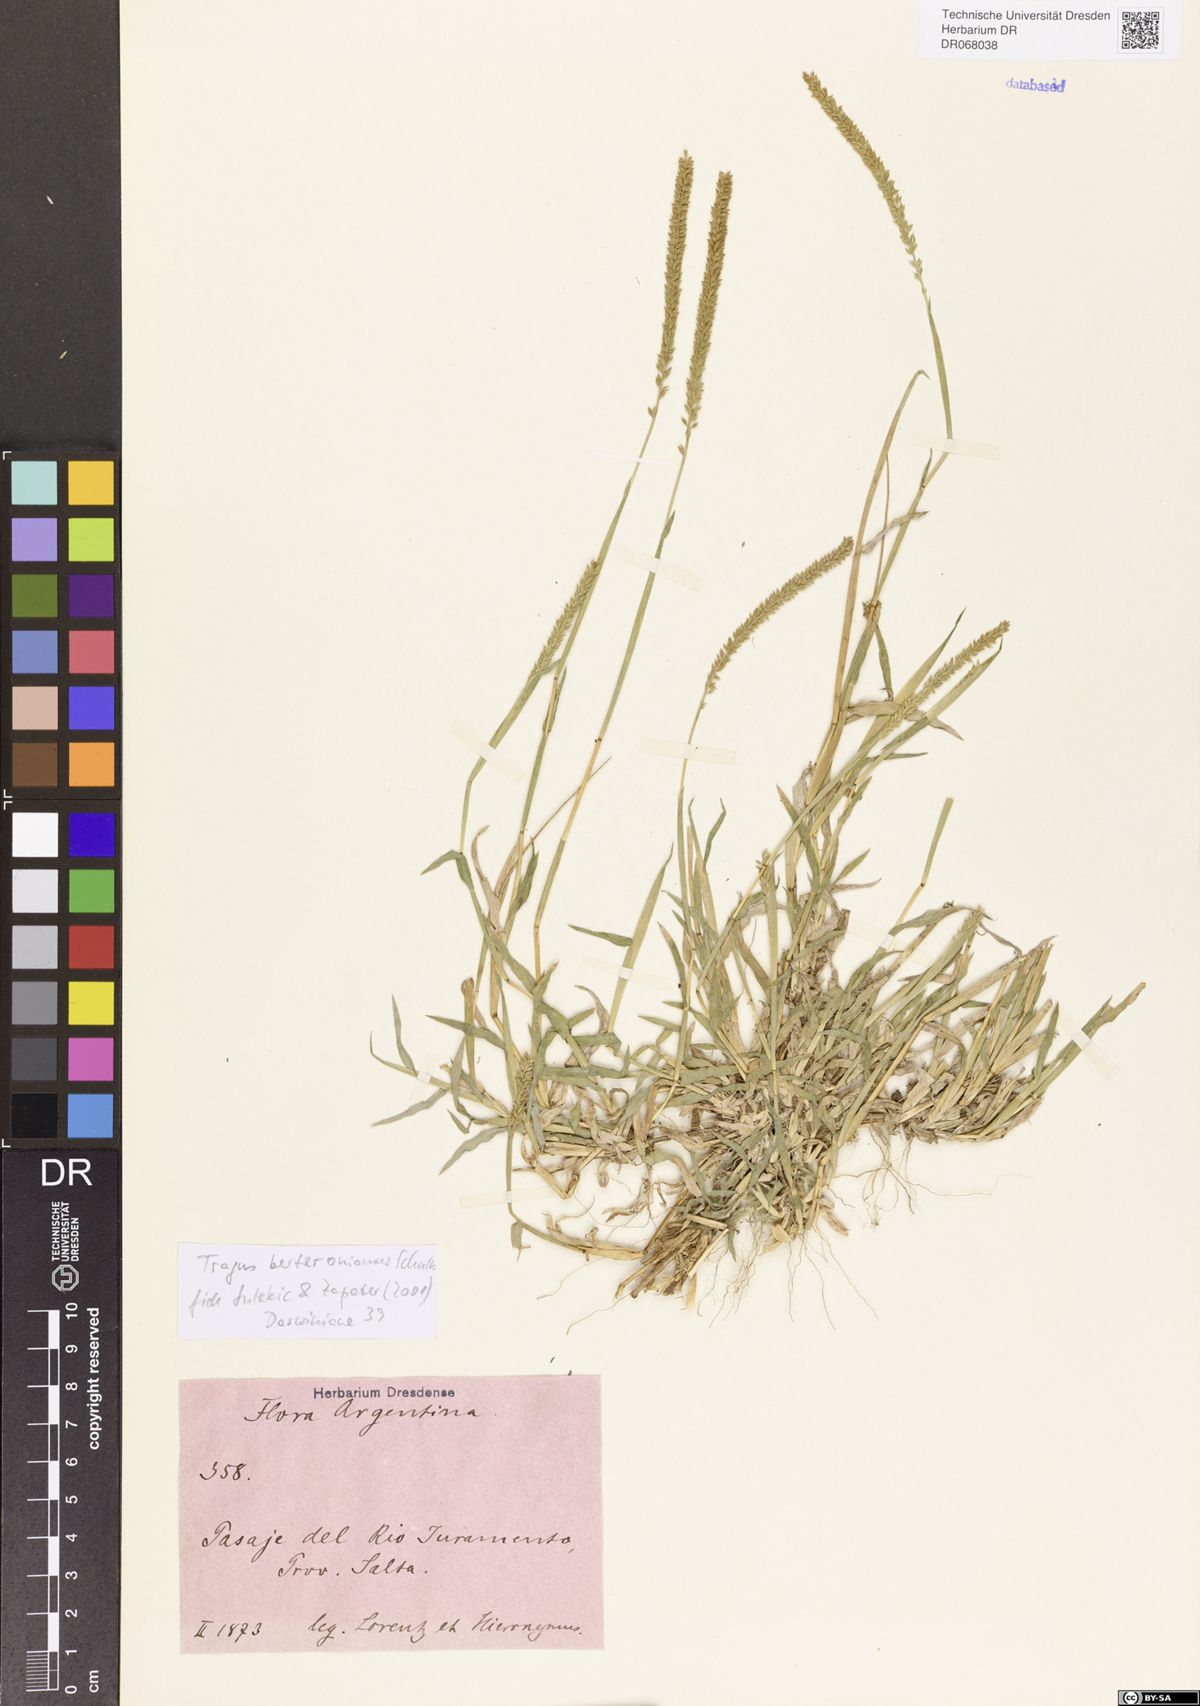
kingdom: Plantae
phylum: Tracheophyta
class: Liliopsida
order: Poales
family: Poaceae
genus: Tragus
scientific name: Tragus berteronianus
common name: African bur-grass
